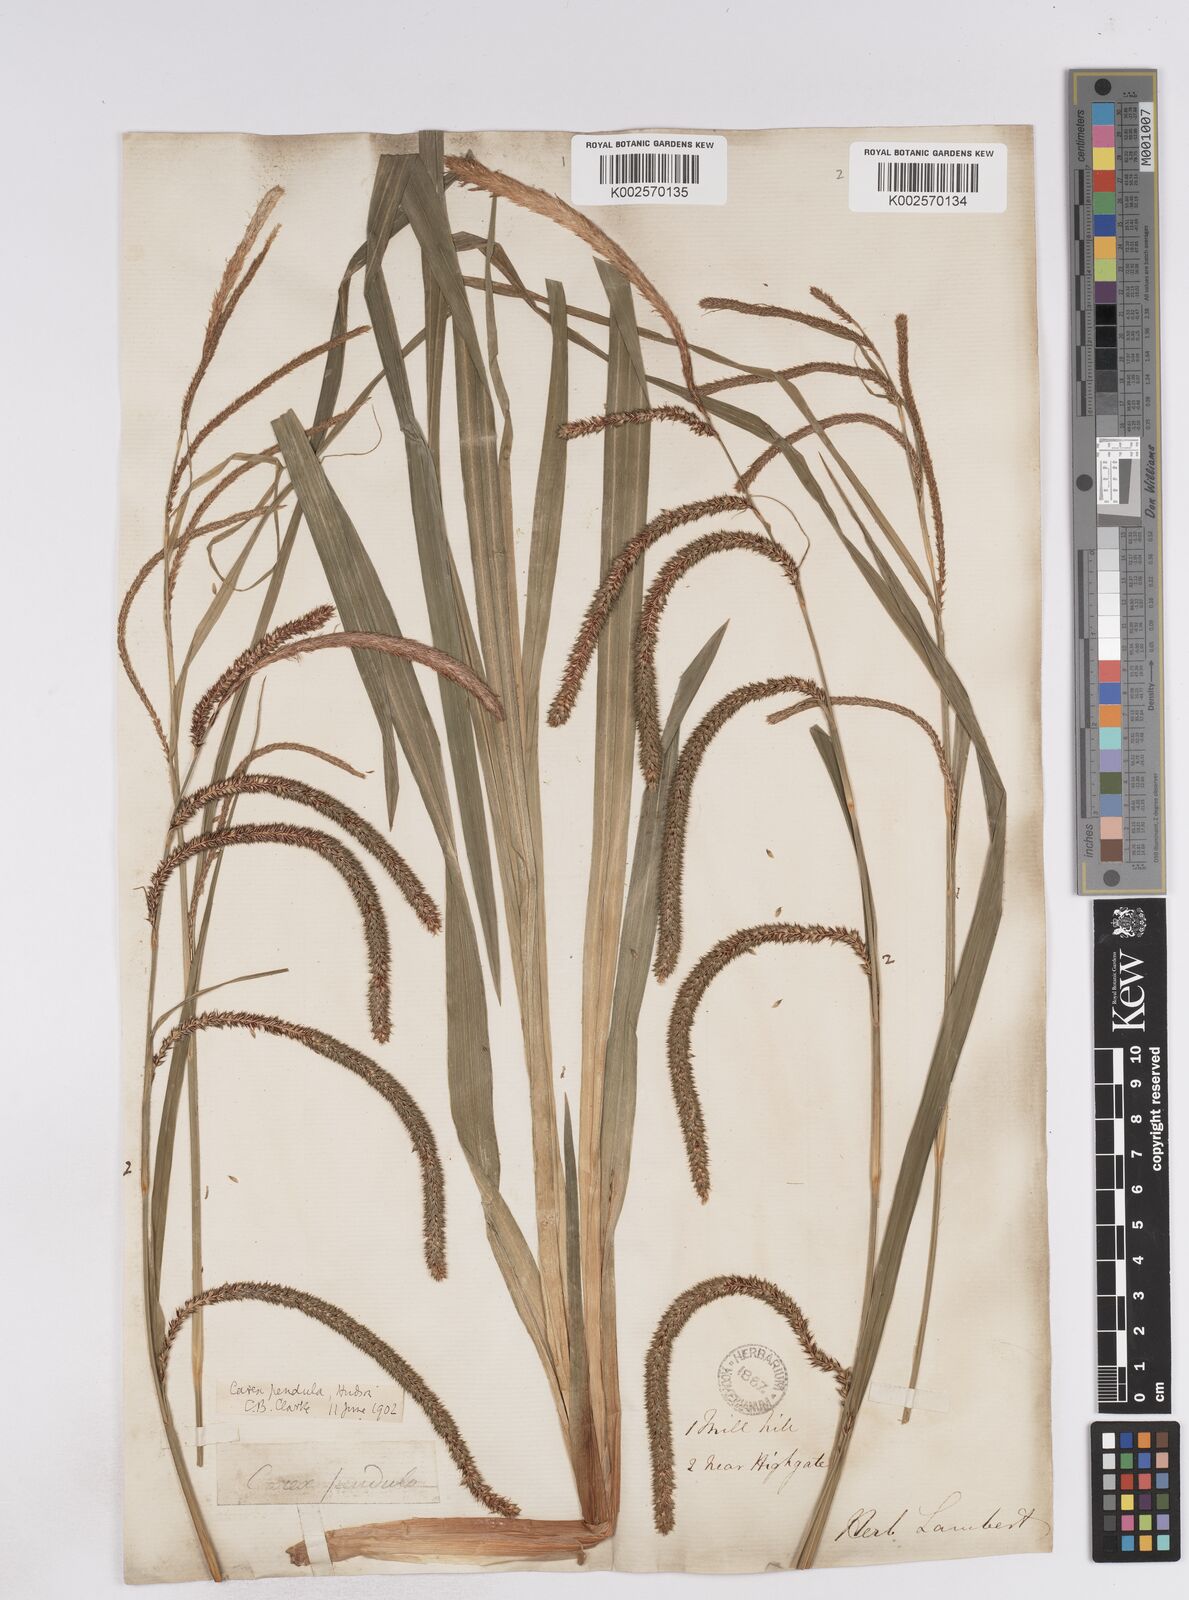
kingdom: Plantae
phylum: Tracheophyta
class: Liliopsida
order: Poales
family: Cyperaceae
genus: Carex
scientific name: Carex pendula
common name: Pendulous sedge
